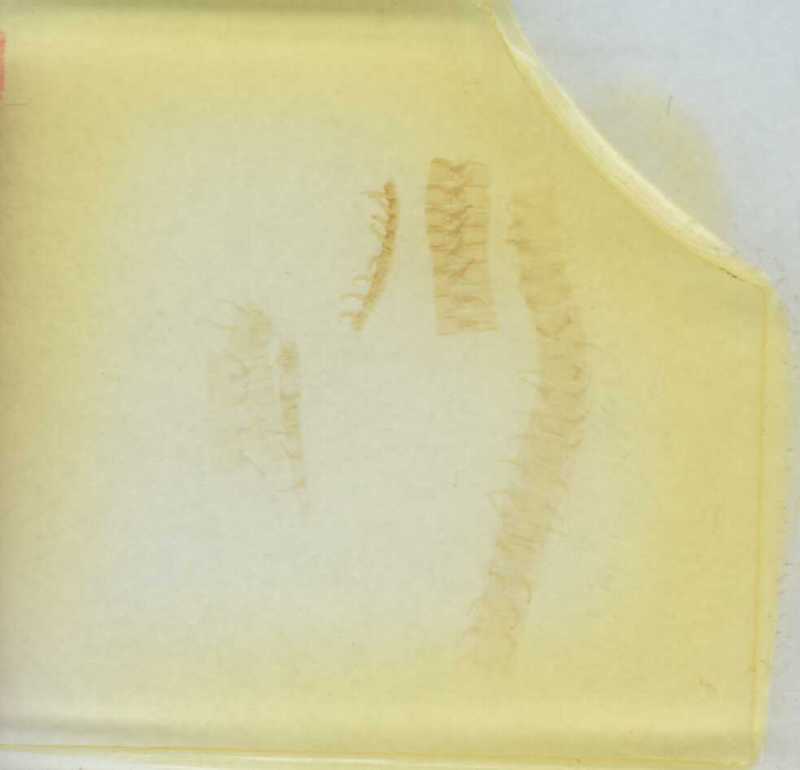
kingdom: Animalia
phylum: Arthropoda
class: Diplopoda
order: Polydesmida
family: Fuhrmannodesmidae
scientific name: Fuhrmannodesmidae
